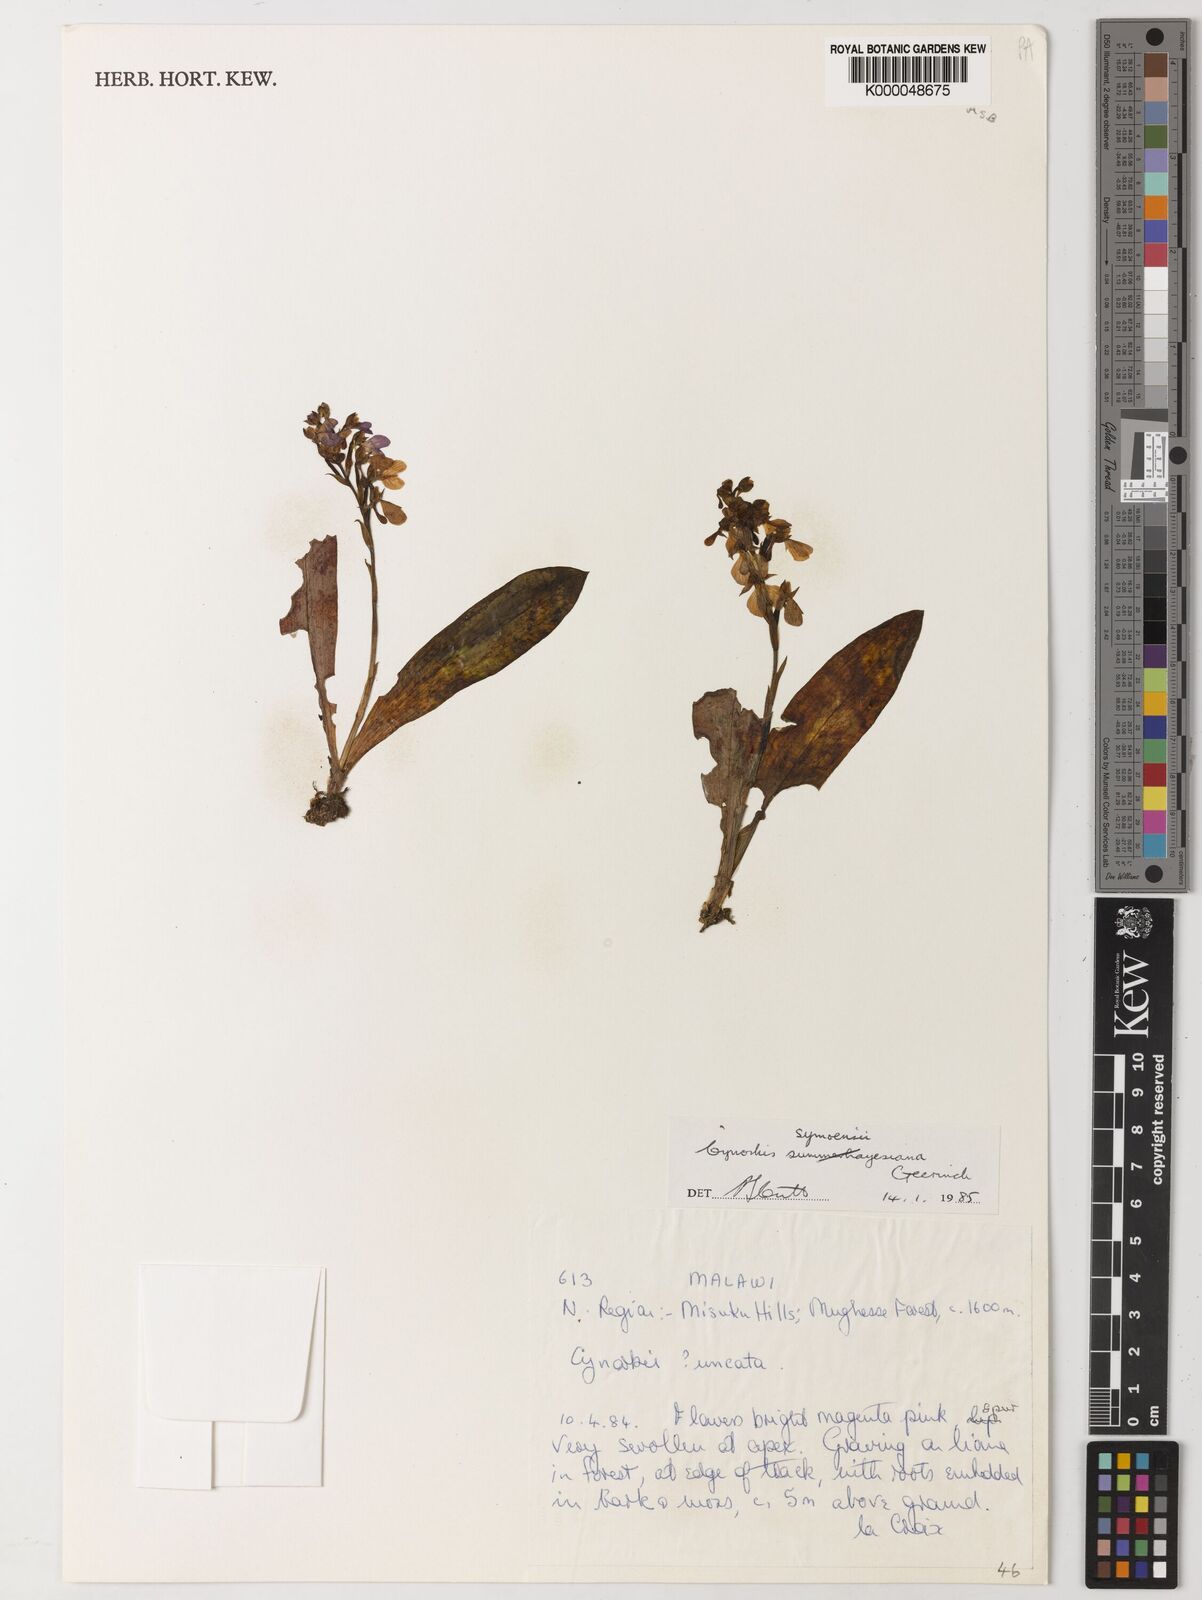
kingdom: Plantae
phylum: Tracheophyta
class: Liliopsida
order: Asparagales
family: Orchidaceae
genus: Cynorkis
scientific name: Cynorkis symoensii
